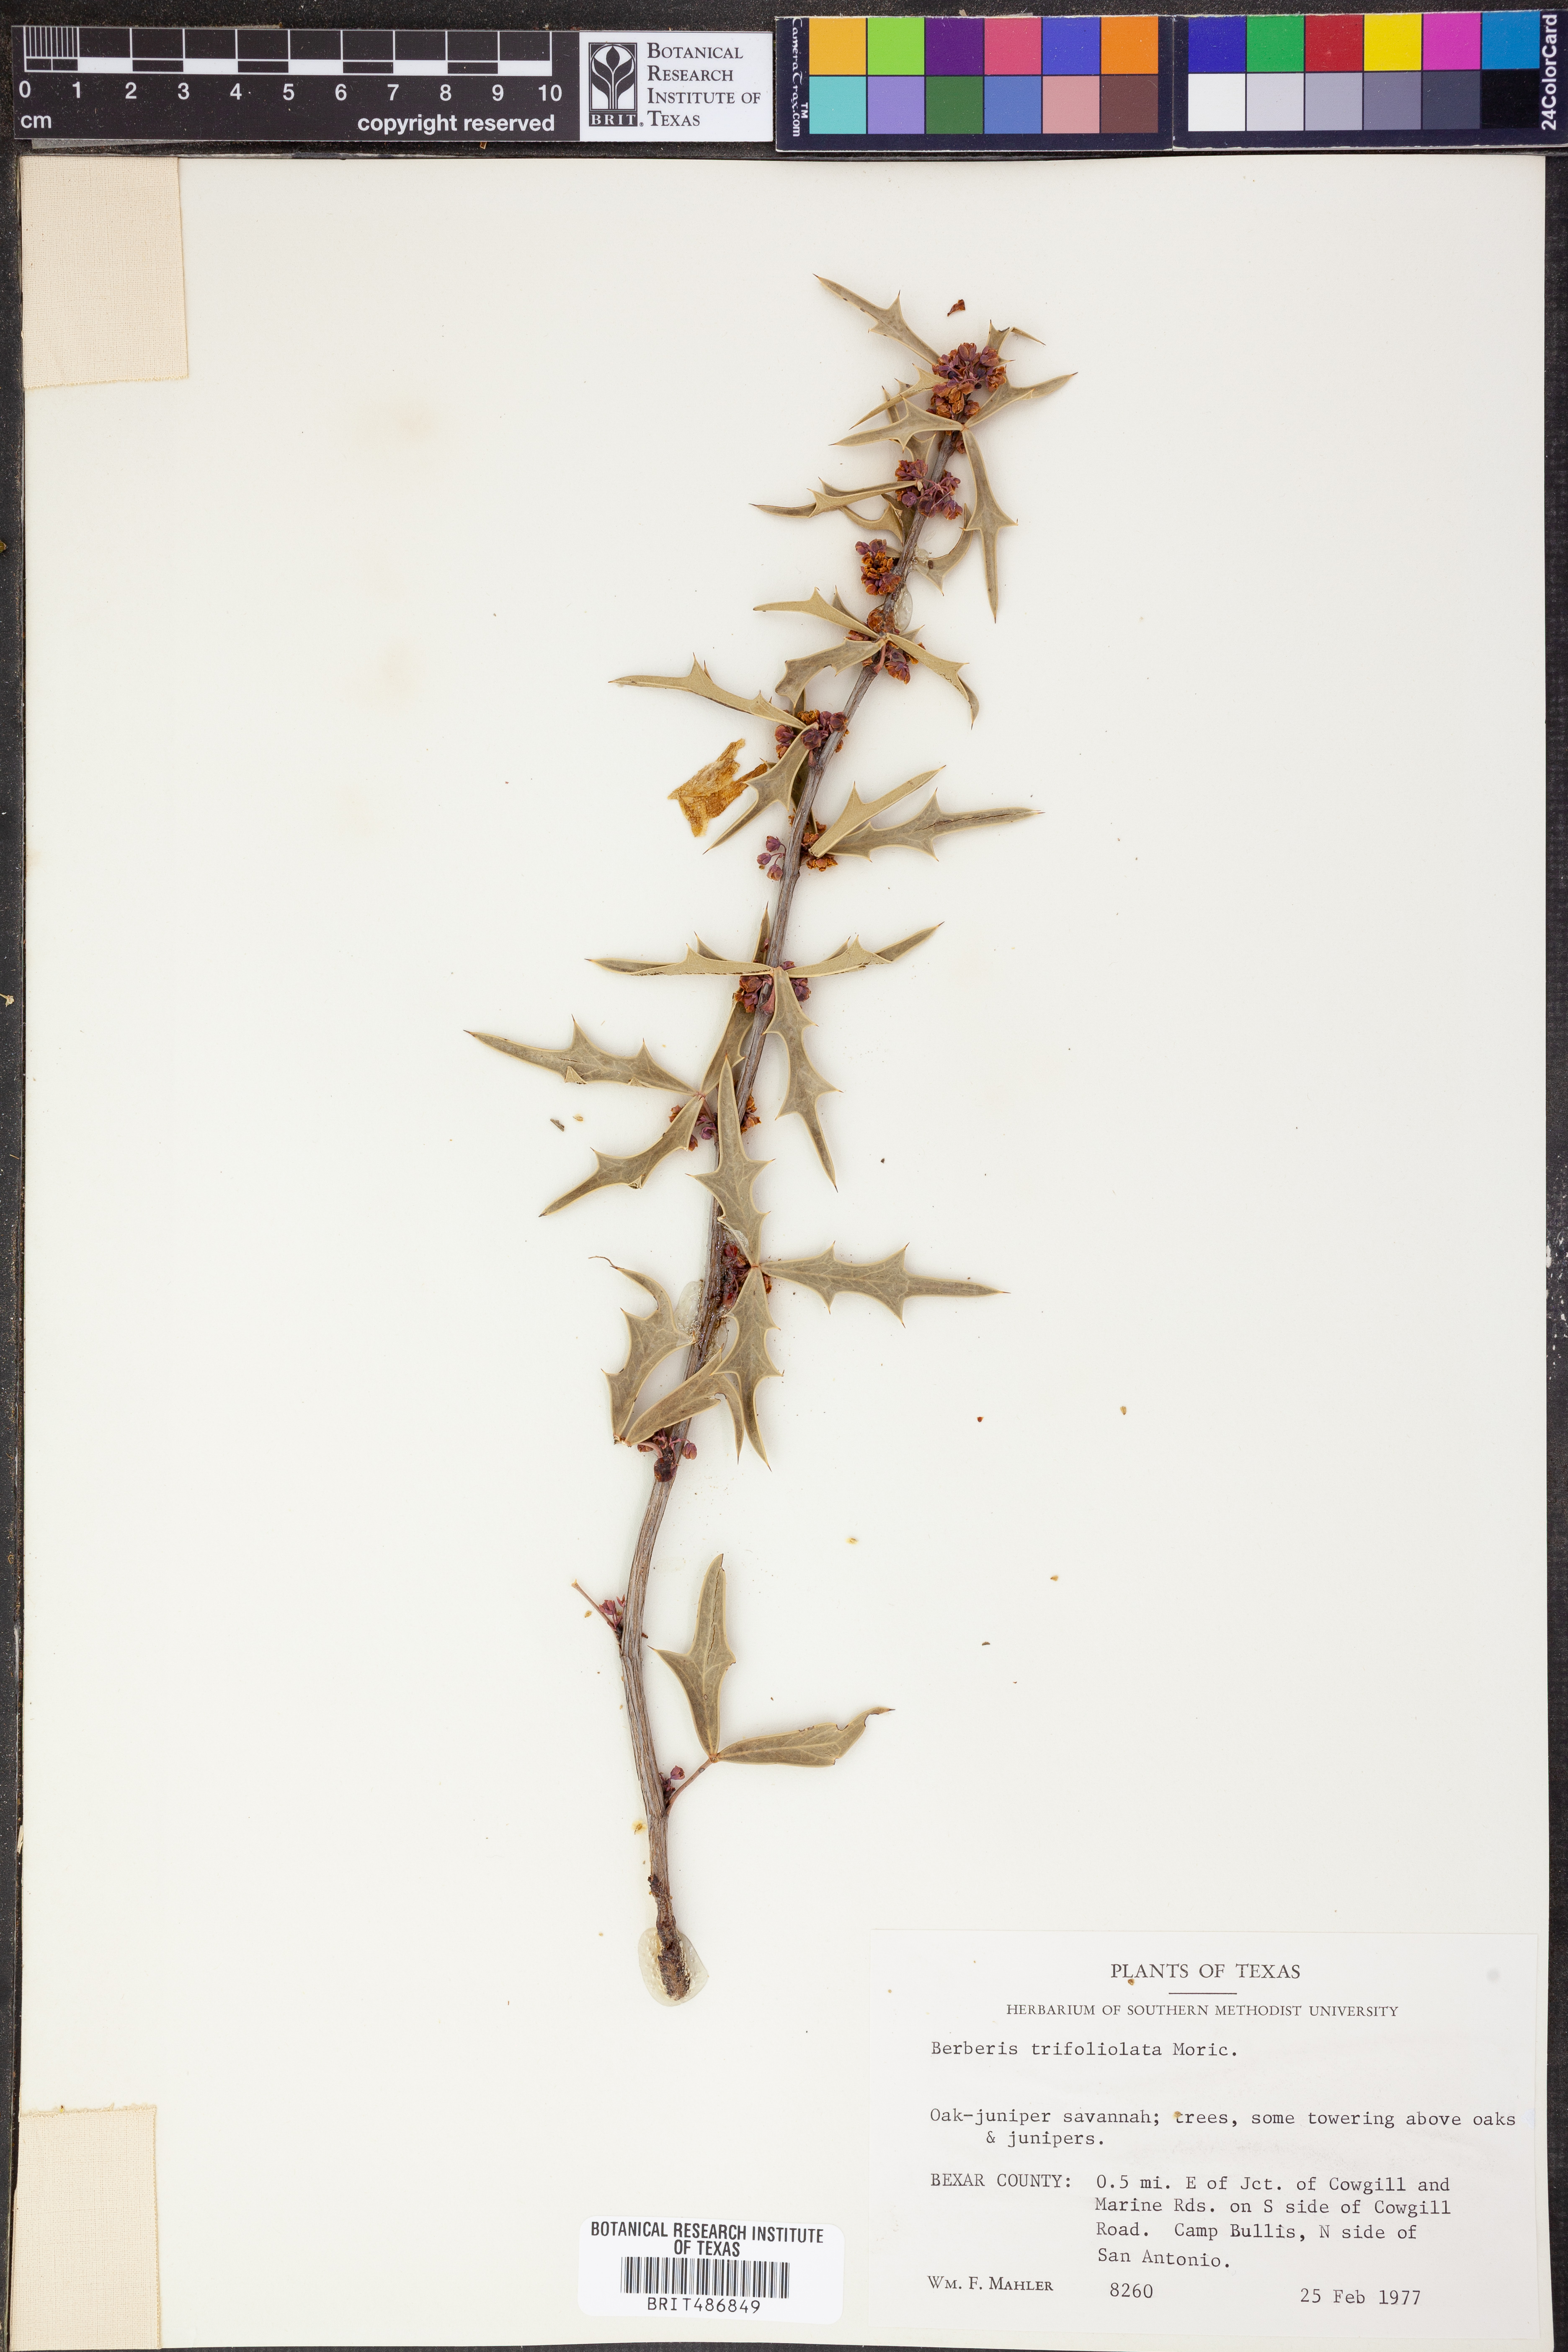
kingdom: Plantae
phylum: Tracheophyta
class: Magnoliopsida
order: Ranunculales
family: Berberidaceae
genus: Alloberberis
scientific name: Alloberberis trifoliolata
